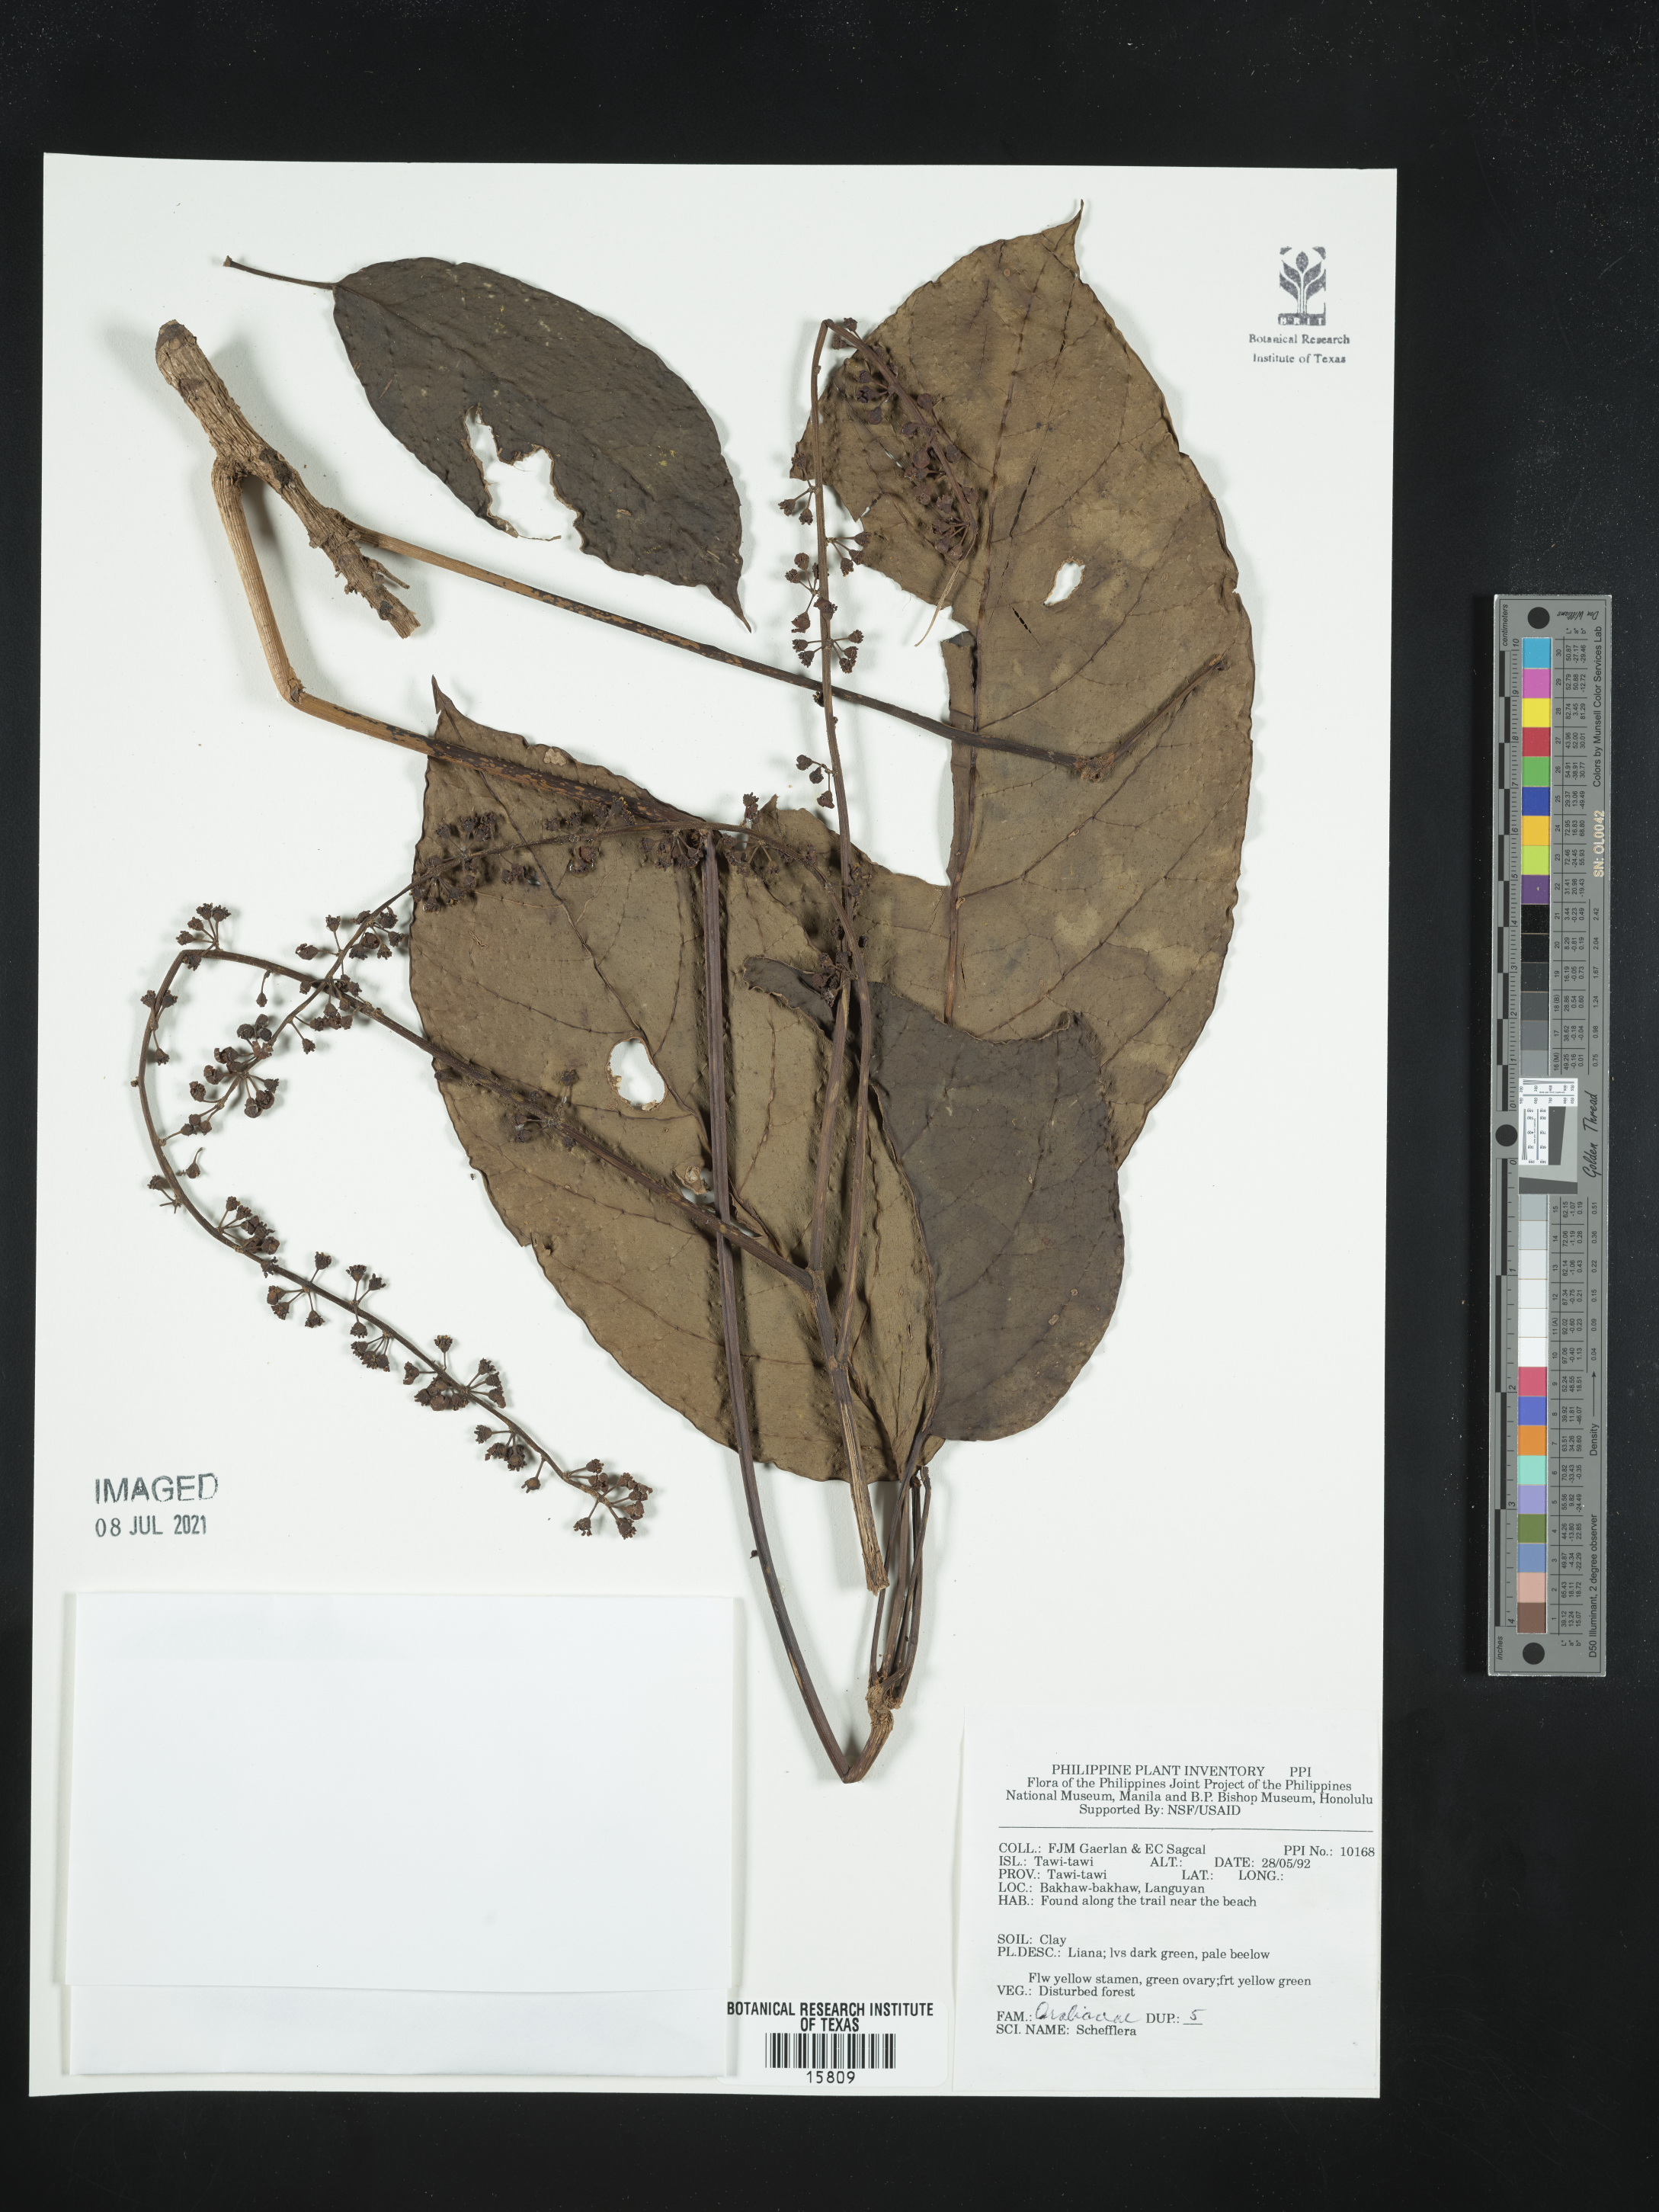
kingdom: Plantae
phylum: Tracheophyta
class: Magnoliopsida
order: Apiales
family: Araliaceae
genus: Schefflera
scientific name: Schefflera
